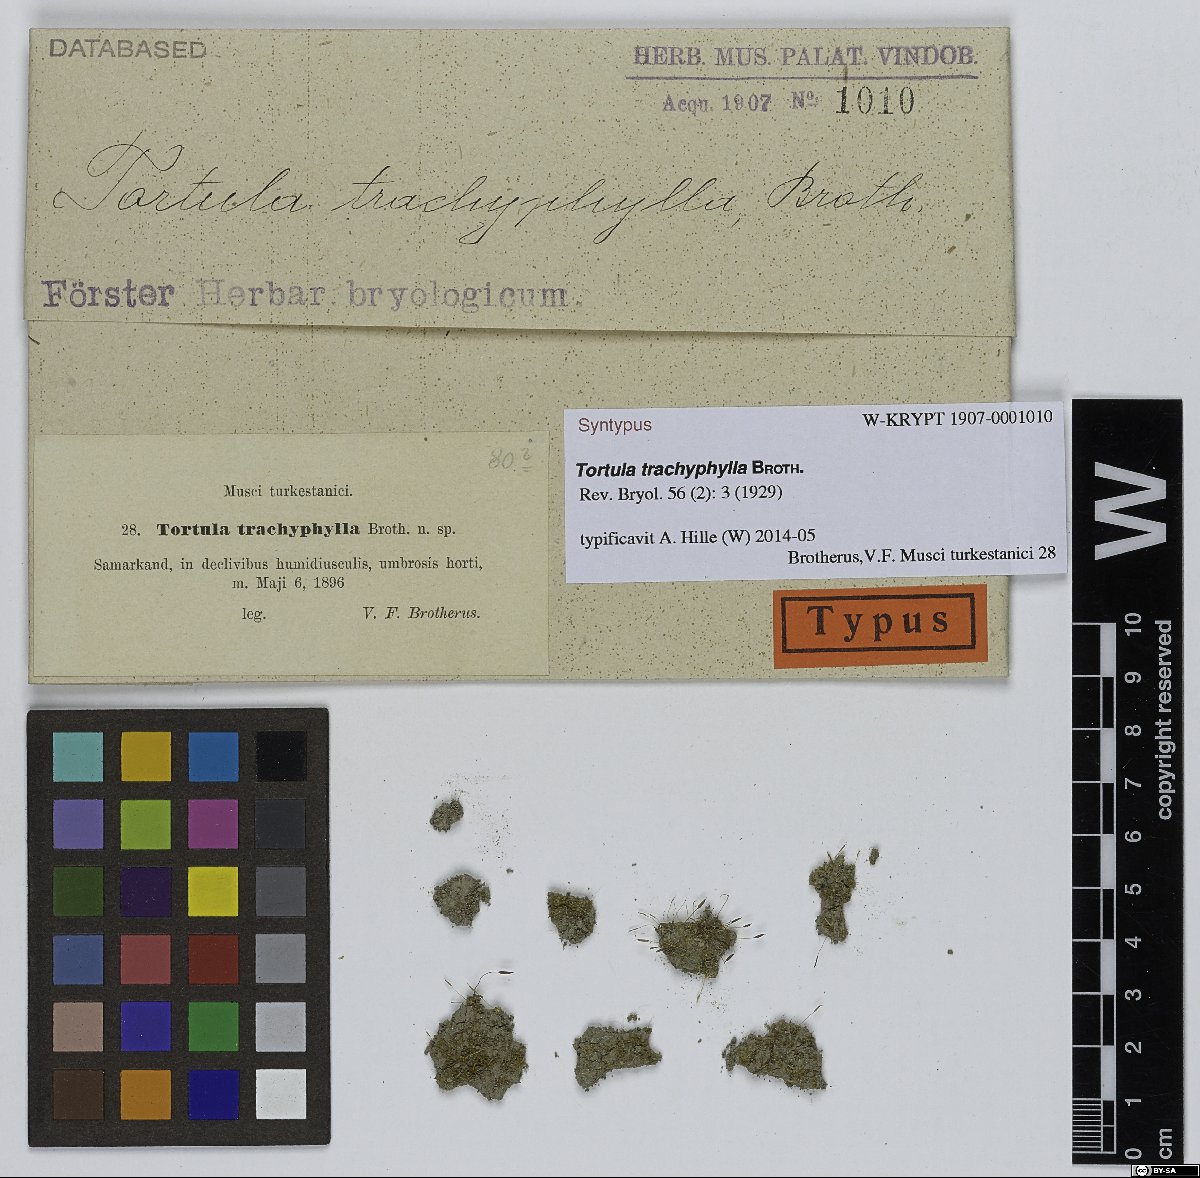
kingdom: Plantae
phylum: Bryophyta
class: Bryopsida
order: Pottiales
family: Pottiaceae
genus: Tortula
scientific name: Tortula trachyphylla
